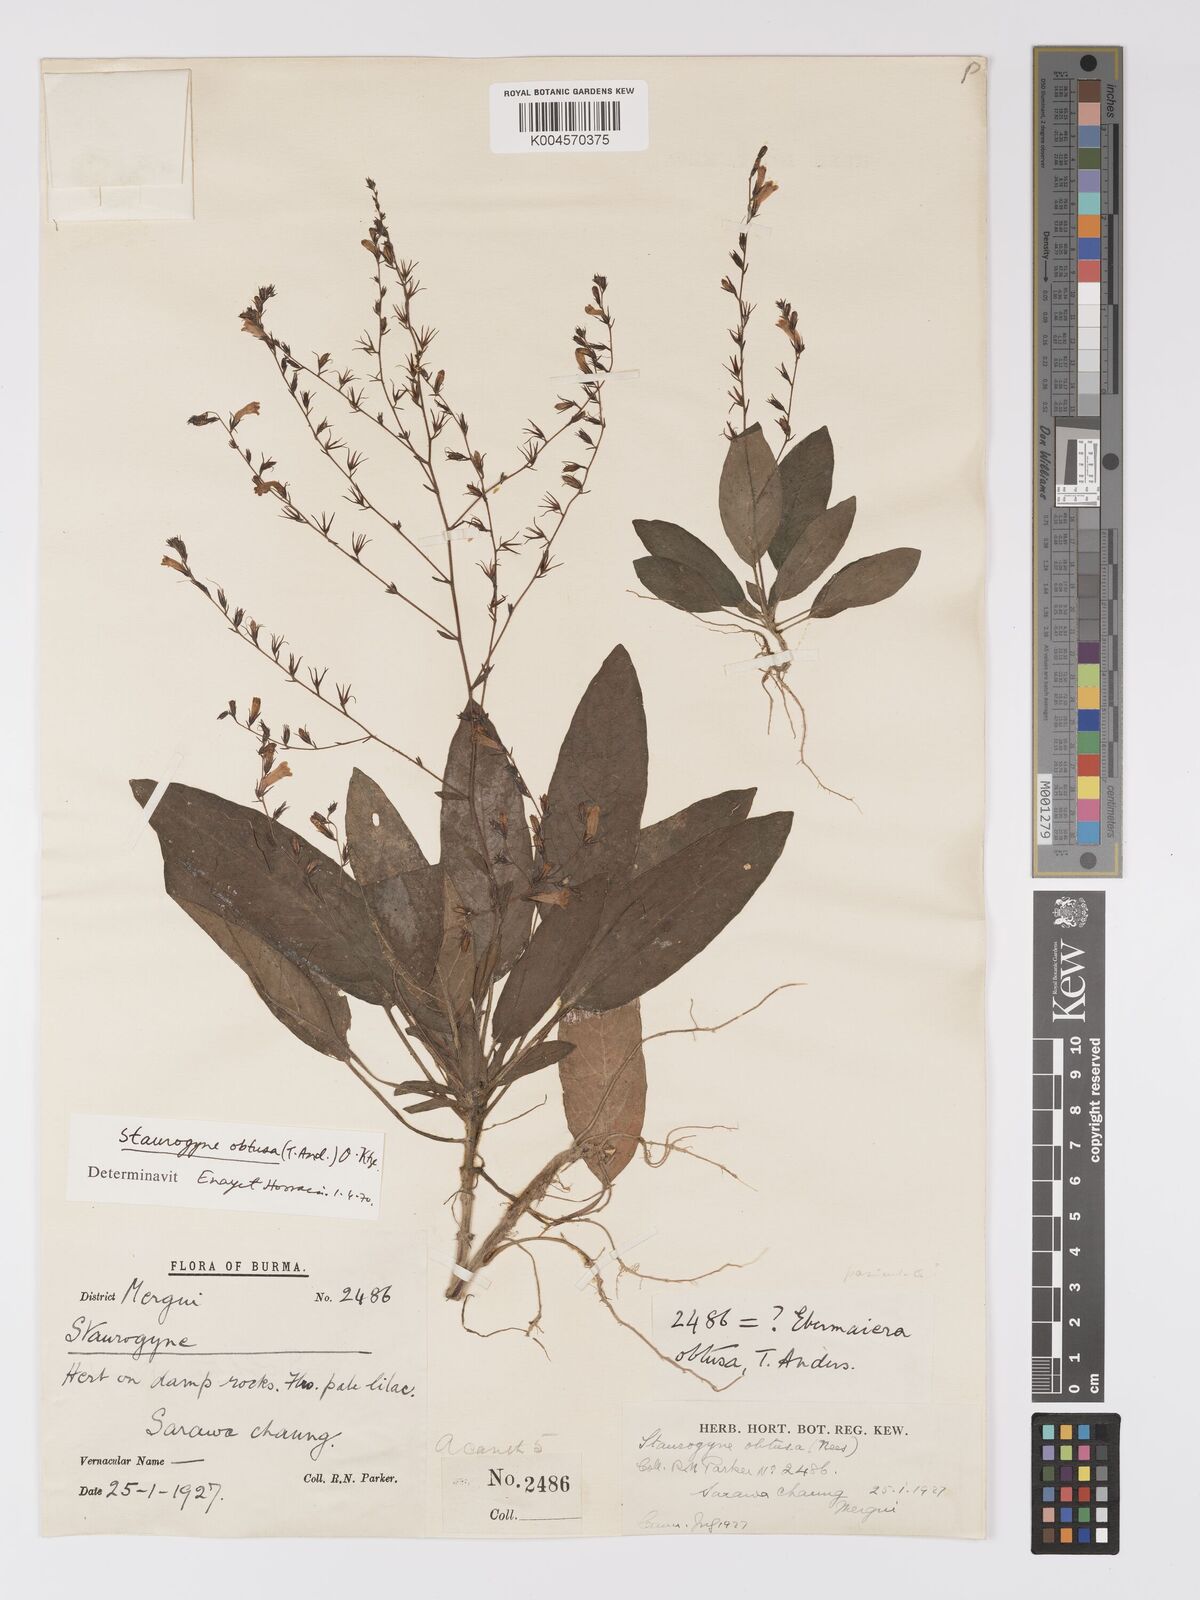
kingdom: Plantae
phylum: Tracheophyta
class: Magnoliopsida
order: Lamiales
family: Acanthaceae
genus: Staurogyne
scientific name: Staurogyne obtusa
